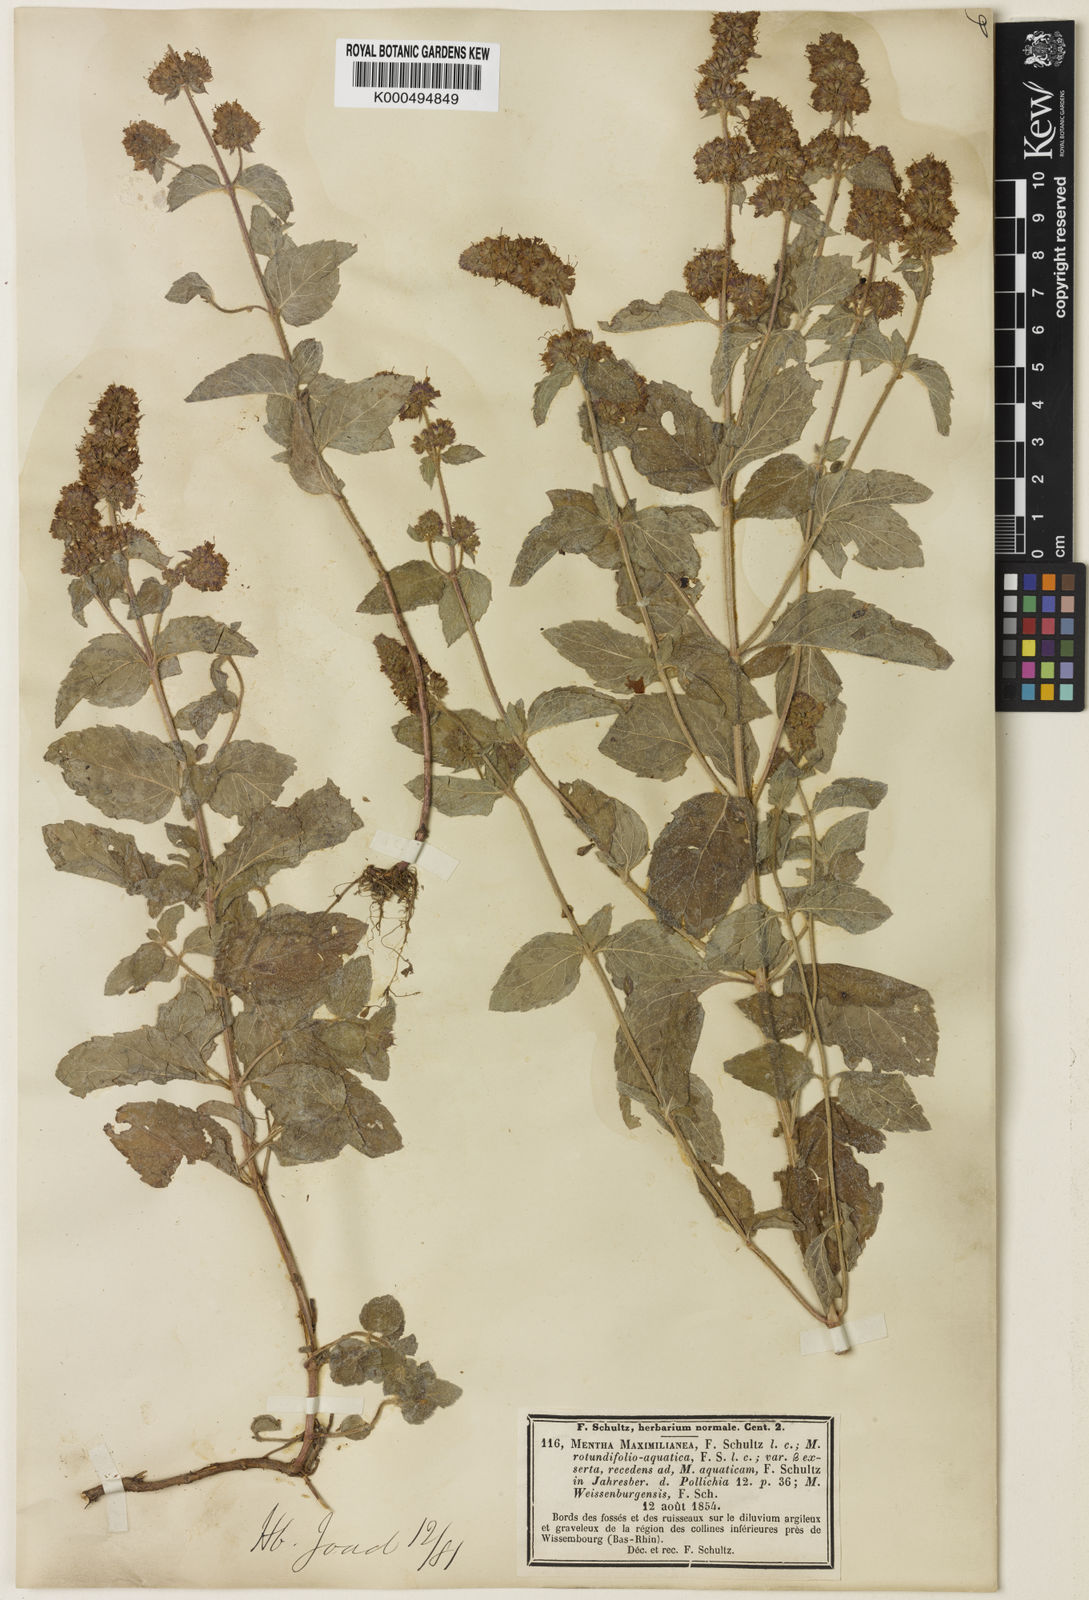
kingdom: Plantae
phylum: Tracheophyta
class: Magnoliopsida
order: Lamiales
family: Lamiaceae
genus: Mentha
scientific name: Mentha suavis
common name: Sweet mint
